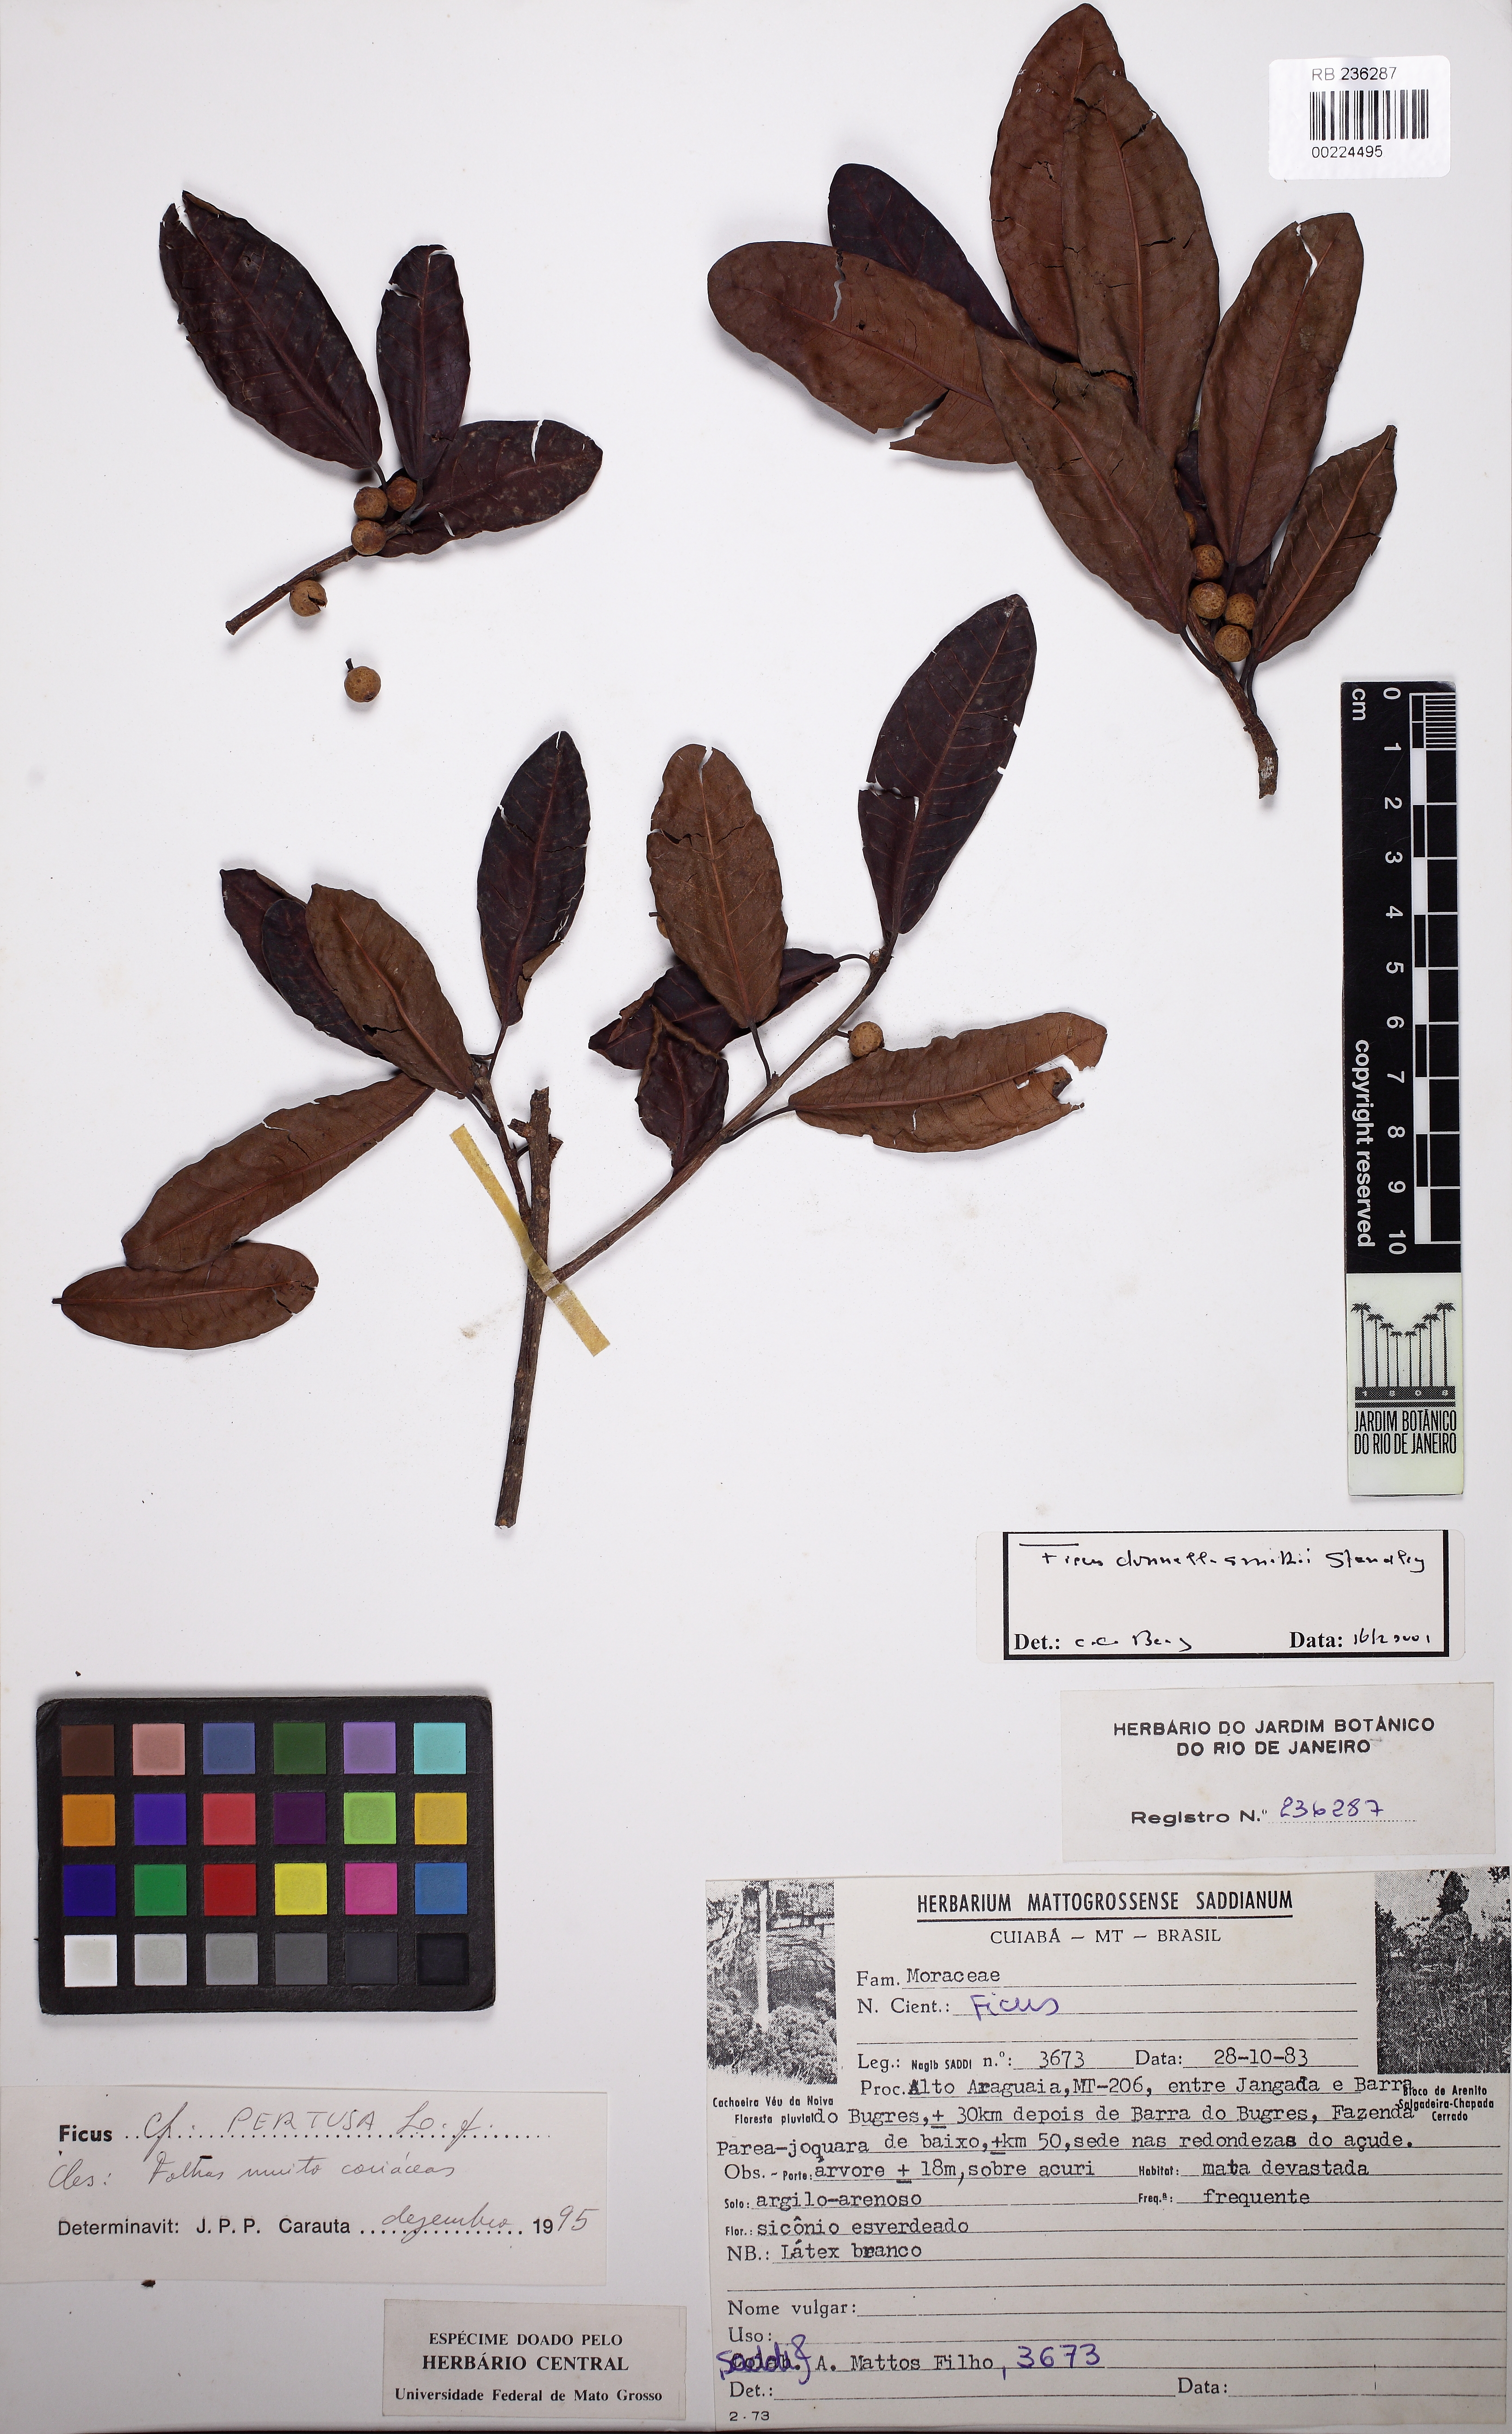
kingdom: Plantae
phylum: Tracheophyta
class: Magnoliopsida
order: Rosales
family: Moraceae
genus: Ficus
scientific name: Ficus donnell-smithii
